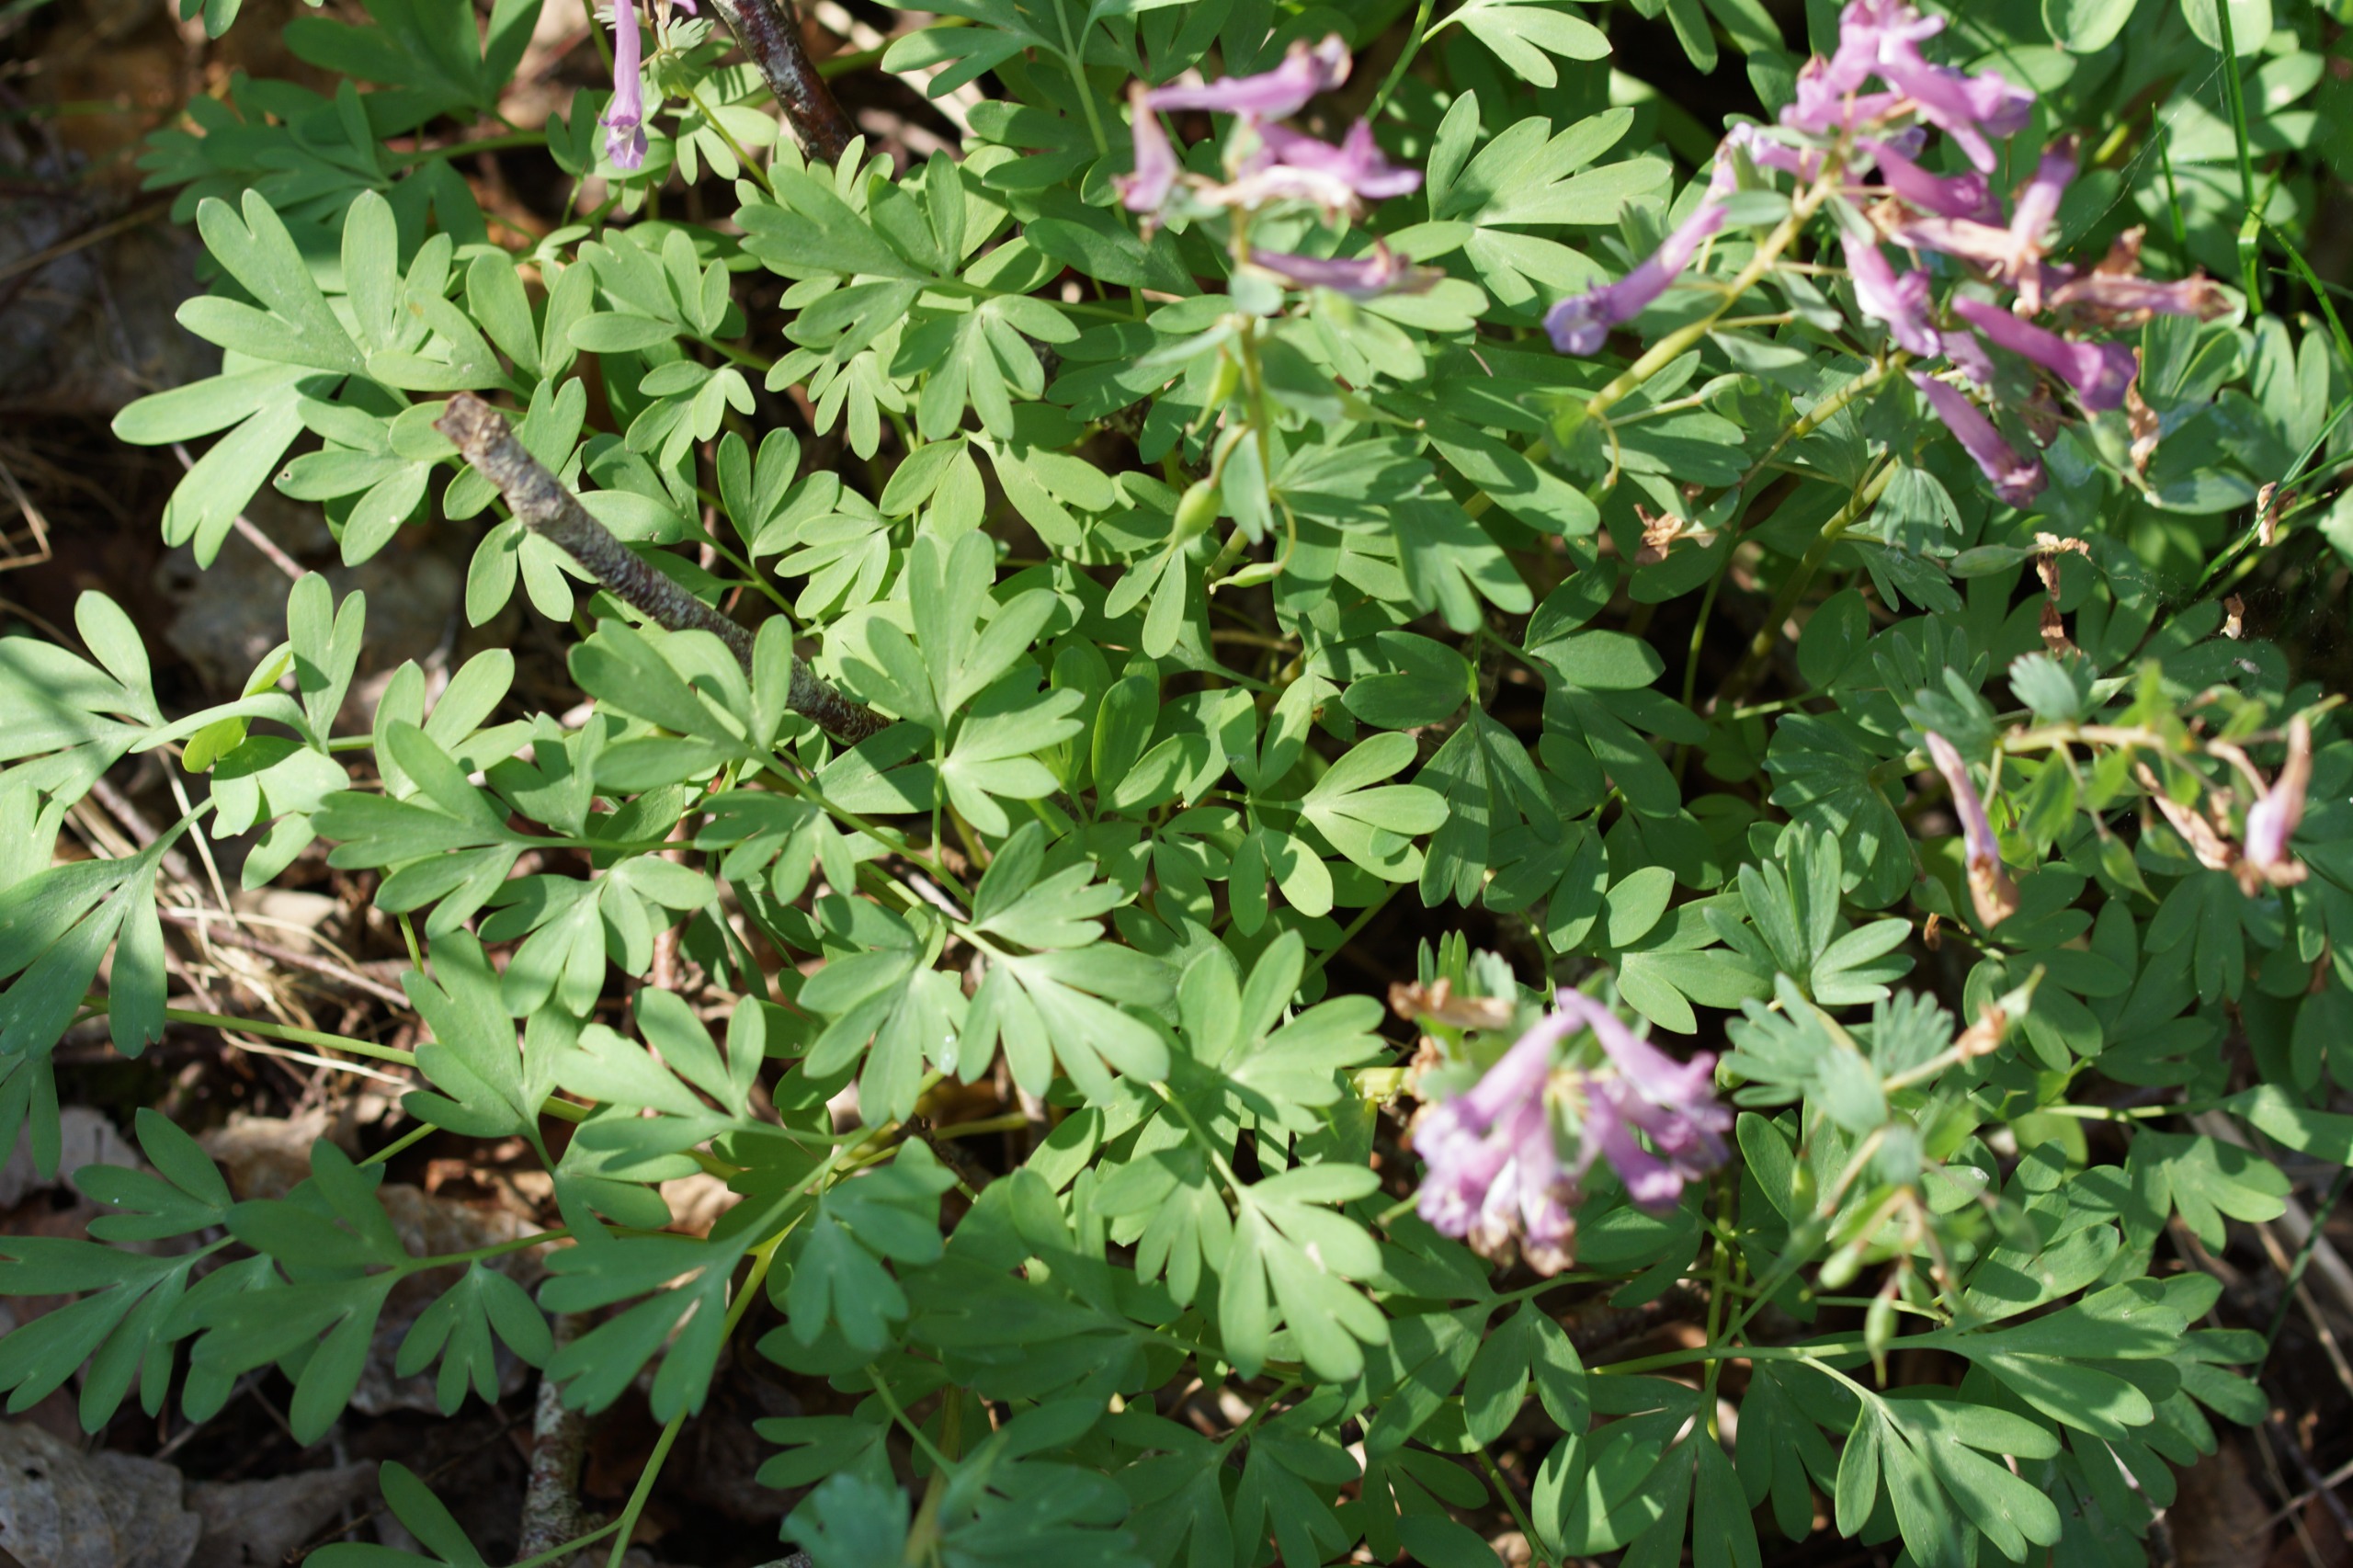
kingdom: Plantae
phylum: Tracheophyta
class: Magnoliopsida
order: Ranunculales
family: Papaveraceae
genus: Corydalis
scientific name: Corydalis solida
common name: Langstilket lærkespore
